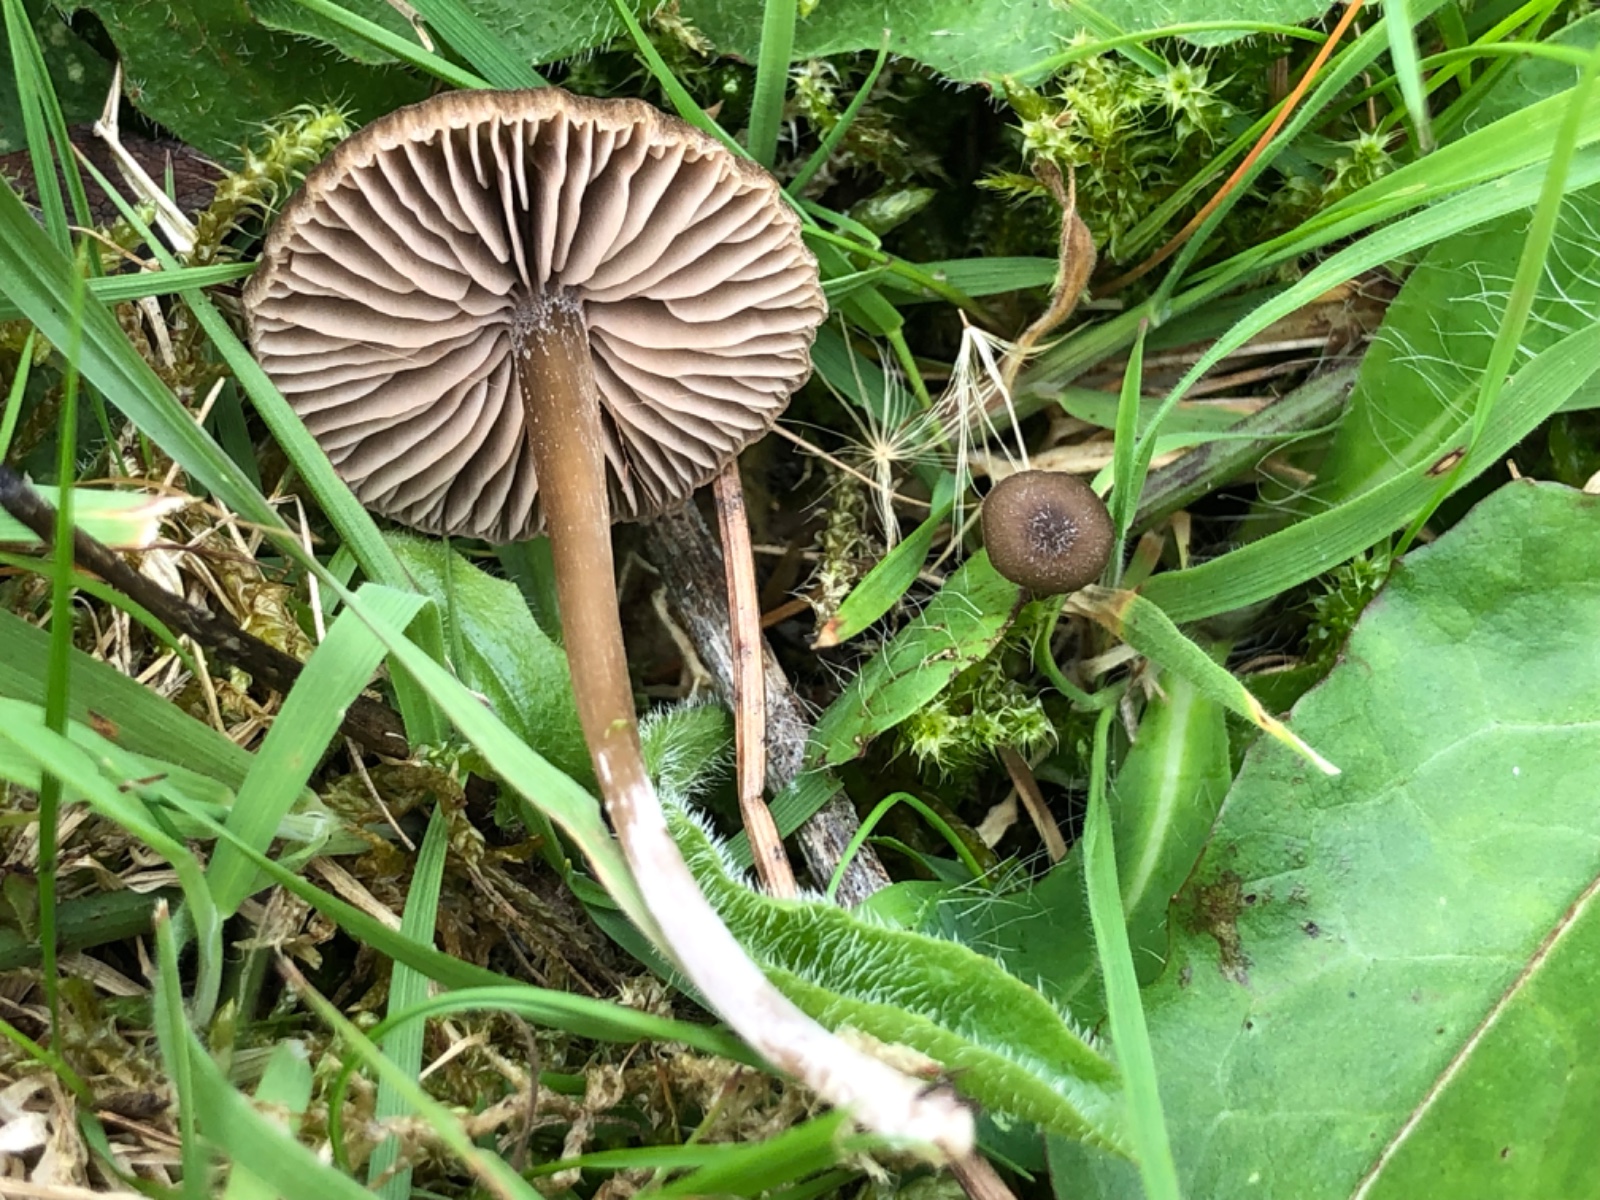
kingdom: Fungi
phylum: Basidiomycota
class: Agaricomycetes
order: Agaricales
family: Entolomataceae
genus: Entoloma
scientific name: Entoloma clandestinum
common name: tykbladet rødblad
